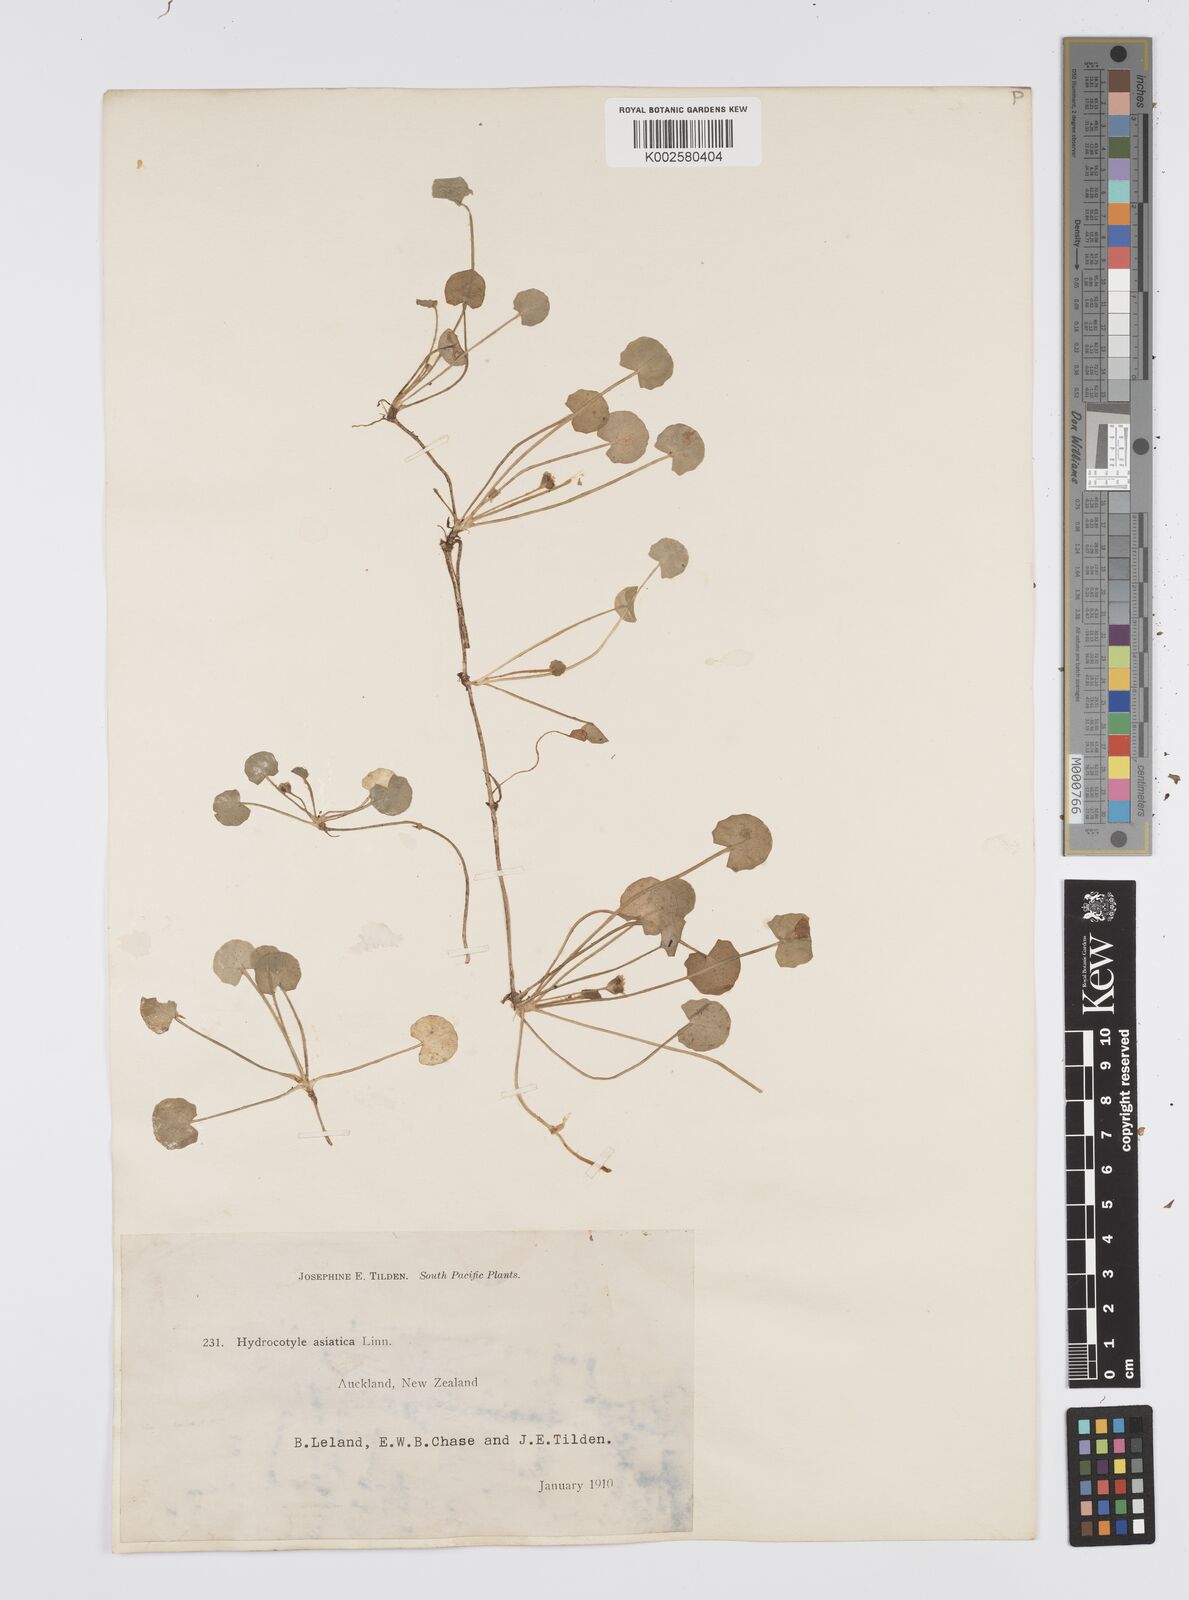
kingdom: Plantae
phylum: Tracheophyta
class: Magnoliopsida
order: Apiales
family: Apiaceae
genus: Centella
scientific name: Centella uniflora
